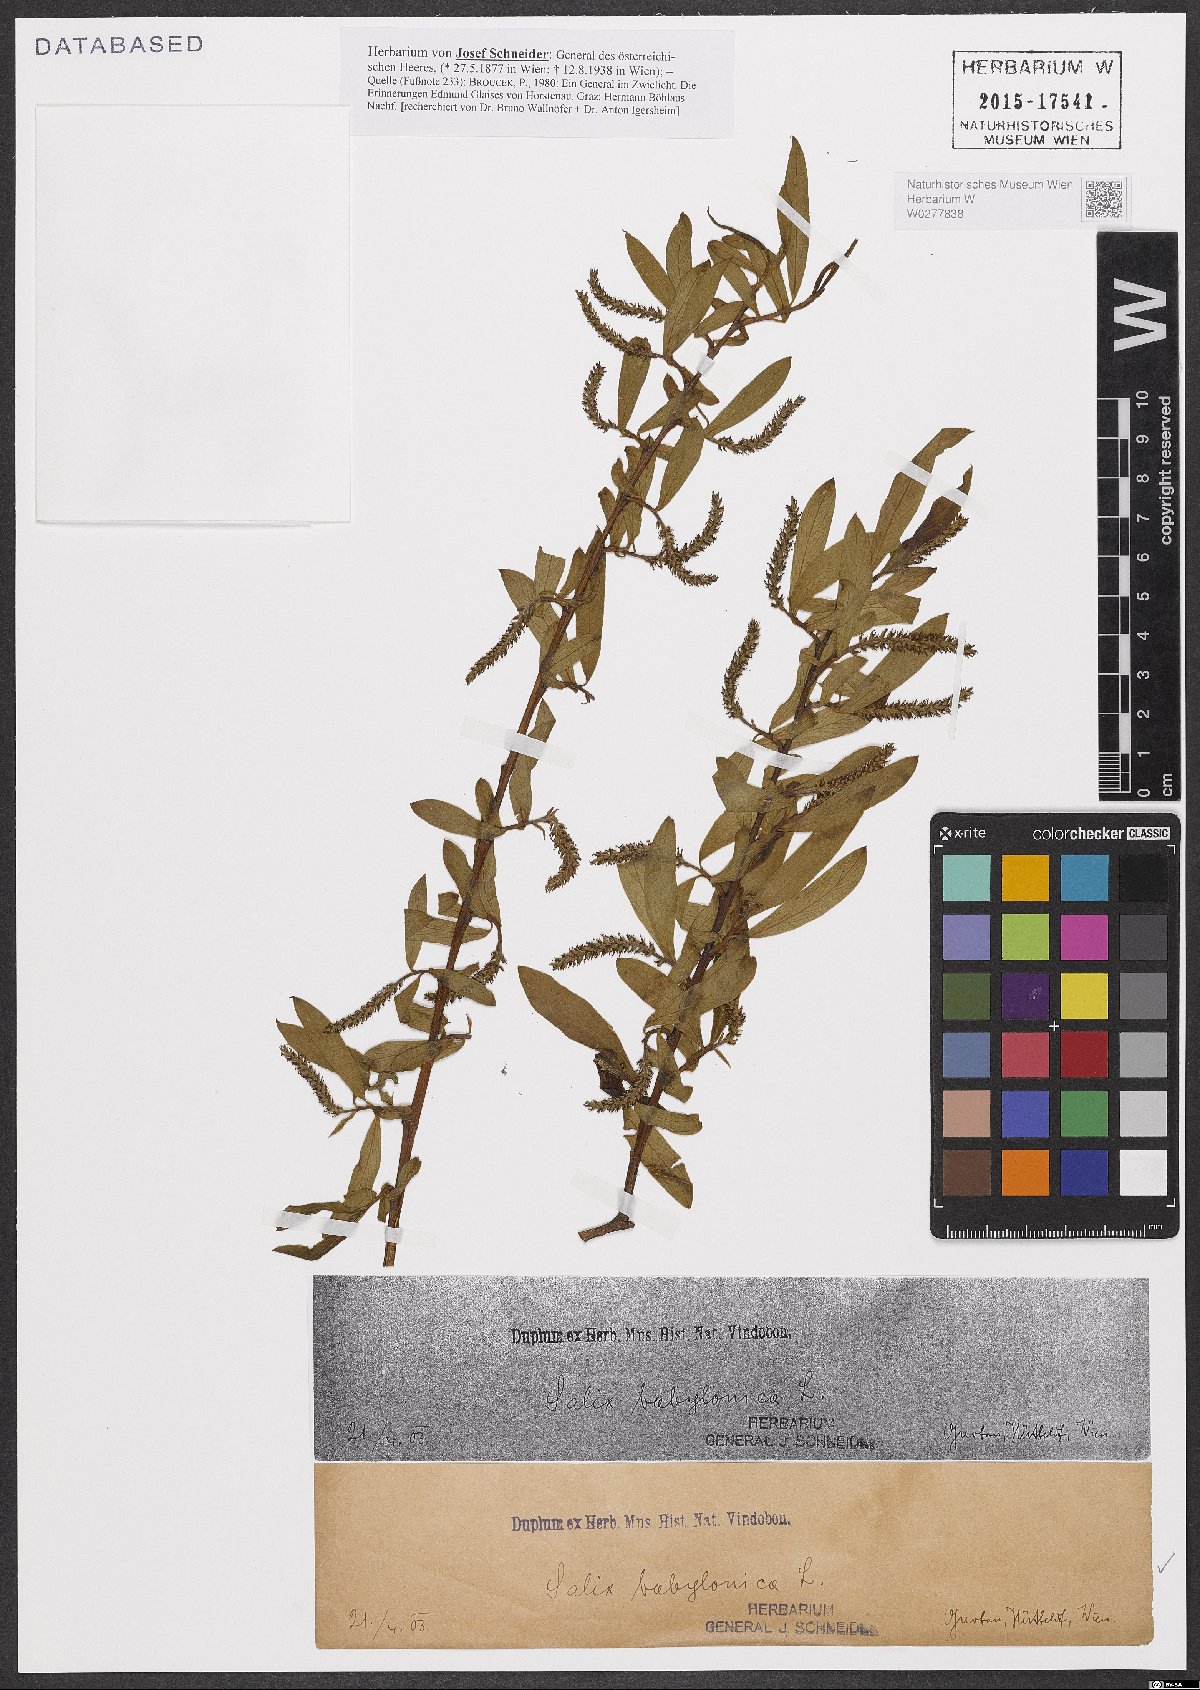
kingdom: Plantae
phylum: Tracheophyta
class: Magnoliopsida
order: Malpighiales
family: Salicaceae
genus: Salix
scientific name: Salix babylonica
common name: Weeping willow
